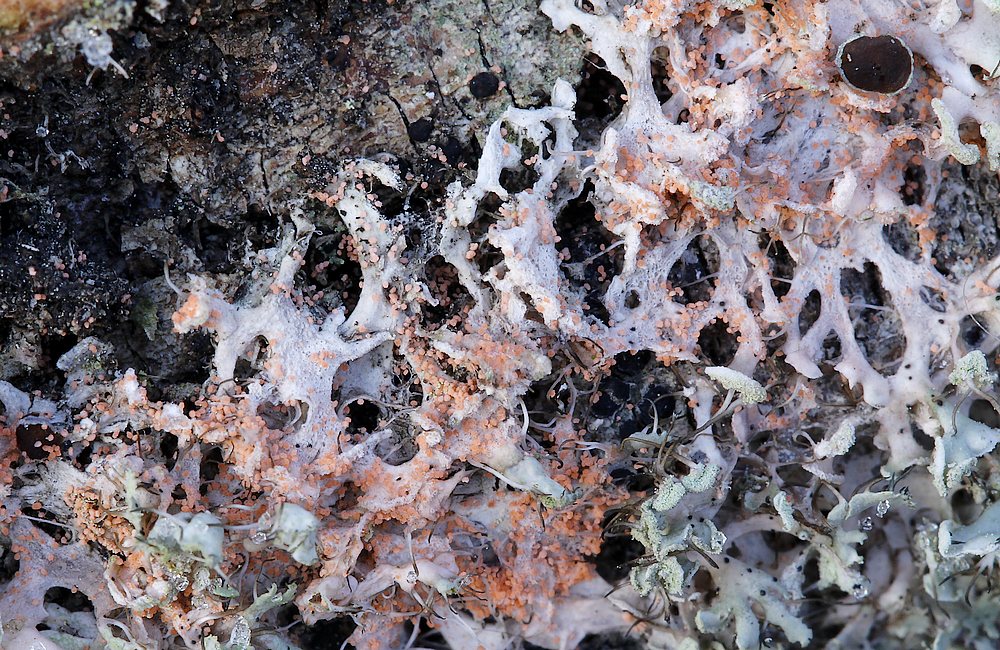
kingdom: Fungi
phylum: Basidiomycota
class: Agaricomycetes
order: Corticiales
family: Corticiaceae
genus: Erythricium
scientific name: Erythricium aurantiacum
